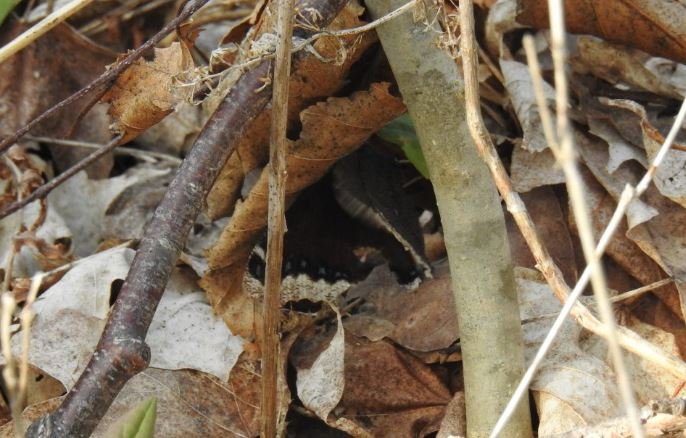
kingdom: Animalia
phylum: Arthropoda
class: Insecta
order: Lepidoptera
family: Nymphalidae
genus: Nymphalis
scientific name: Nymphalis antiopa
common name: Mourning Cloak
